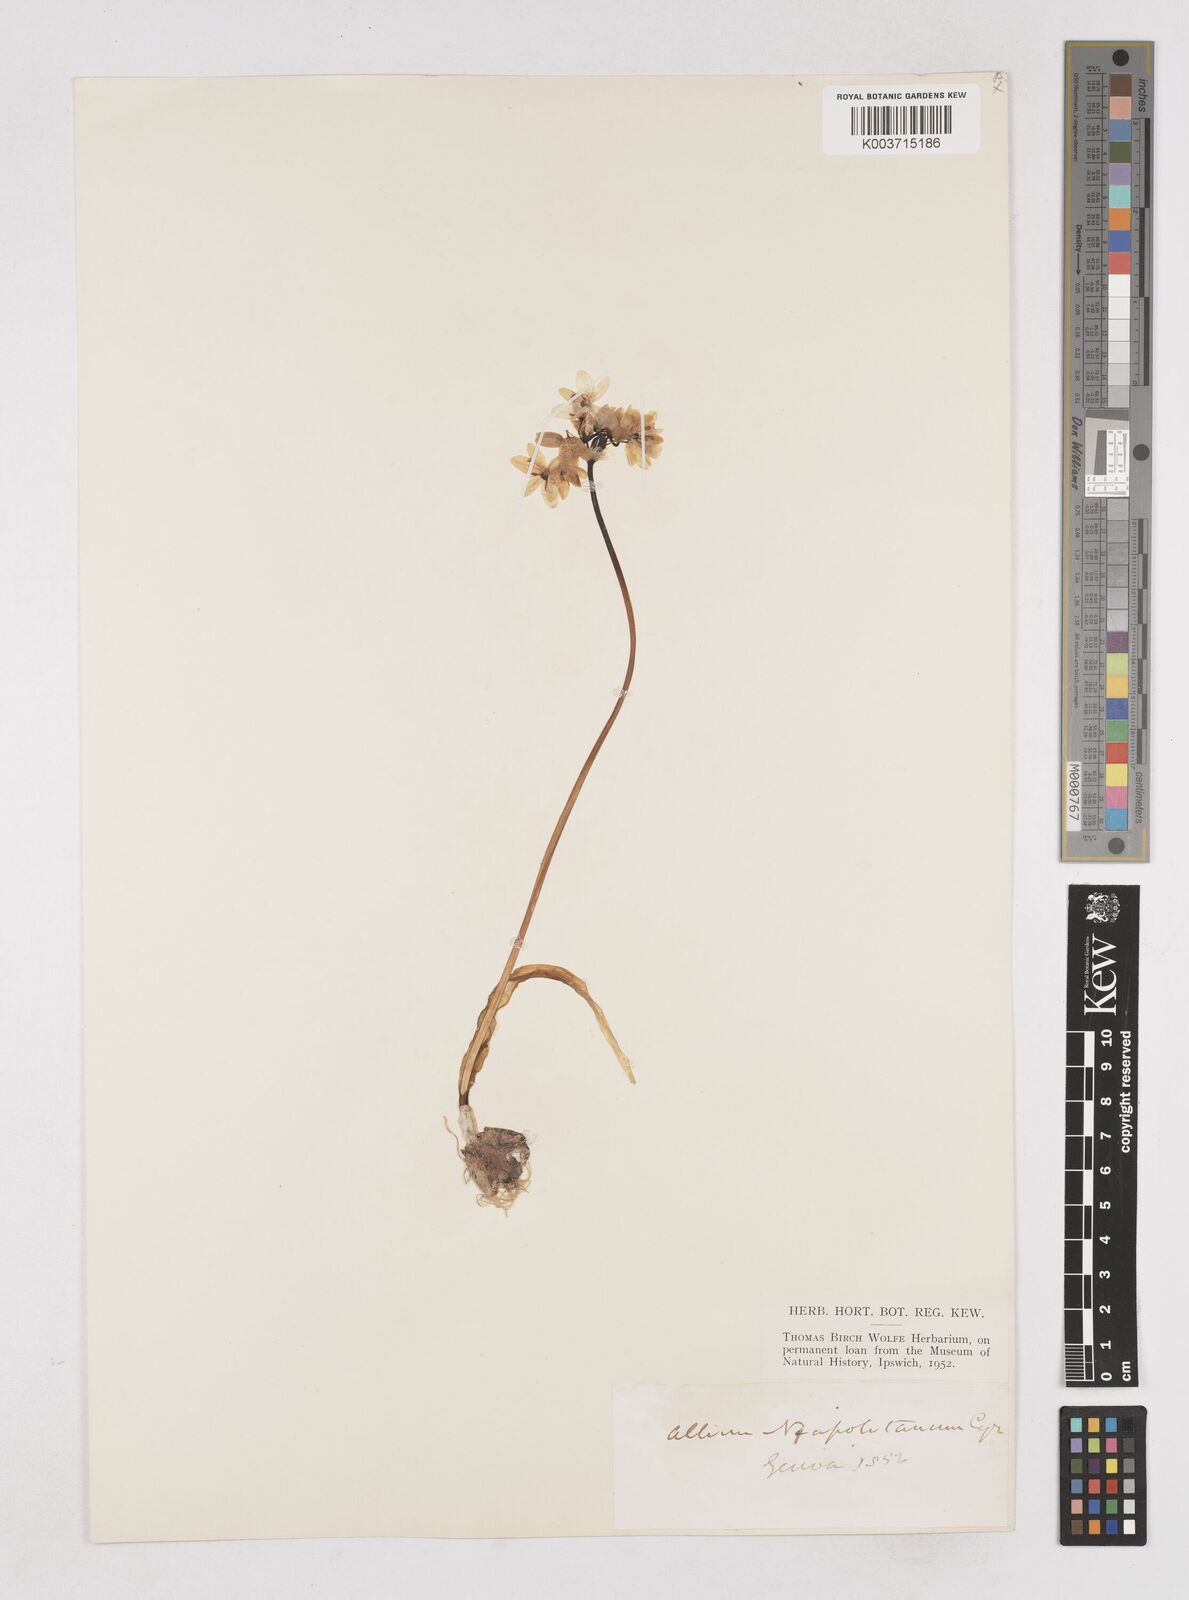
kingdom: Plantae
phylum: Tracheophyta
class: Liliopsida
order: Asparagales
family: Amaryllidaceae
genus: Allium
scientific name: Allium neapolitanum
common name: Neapolitan garlic
